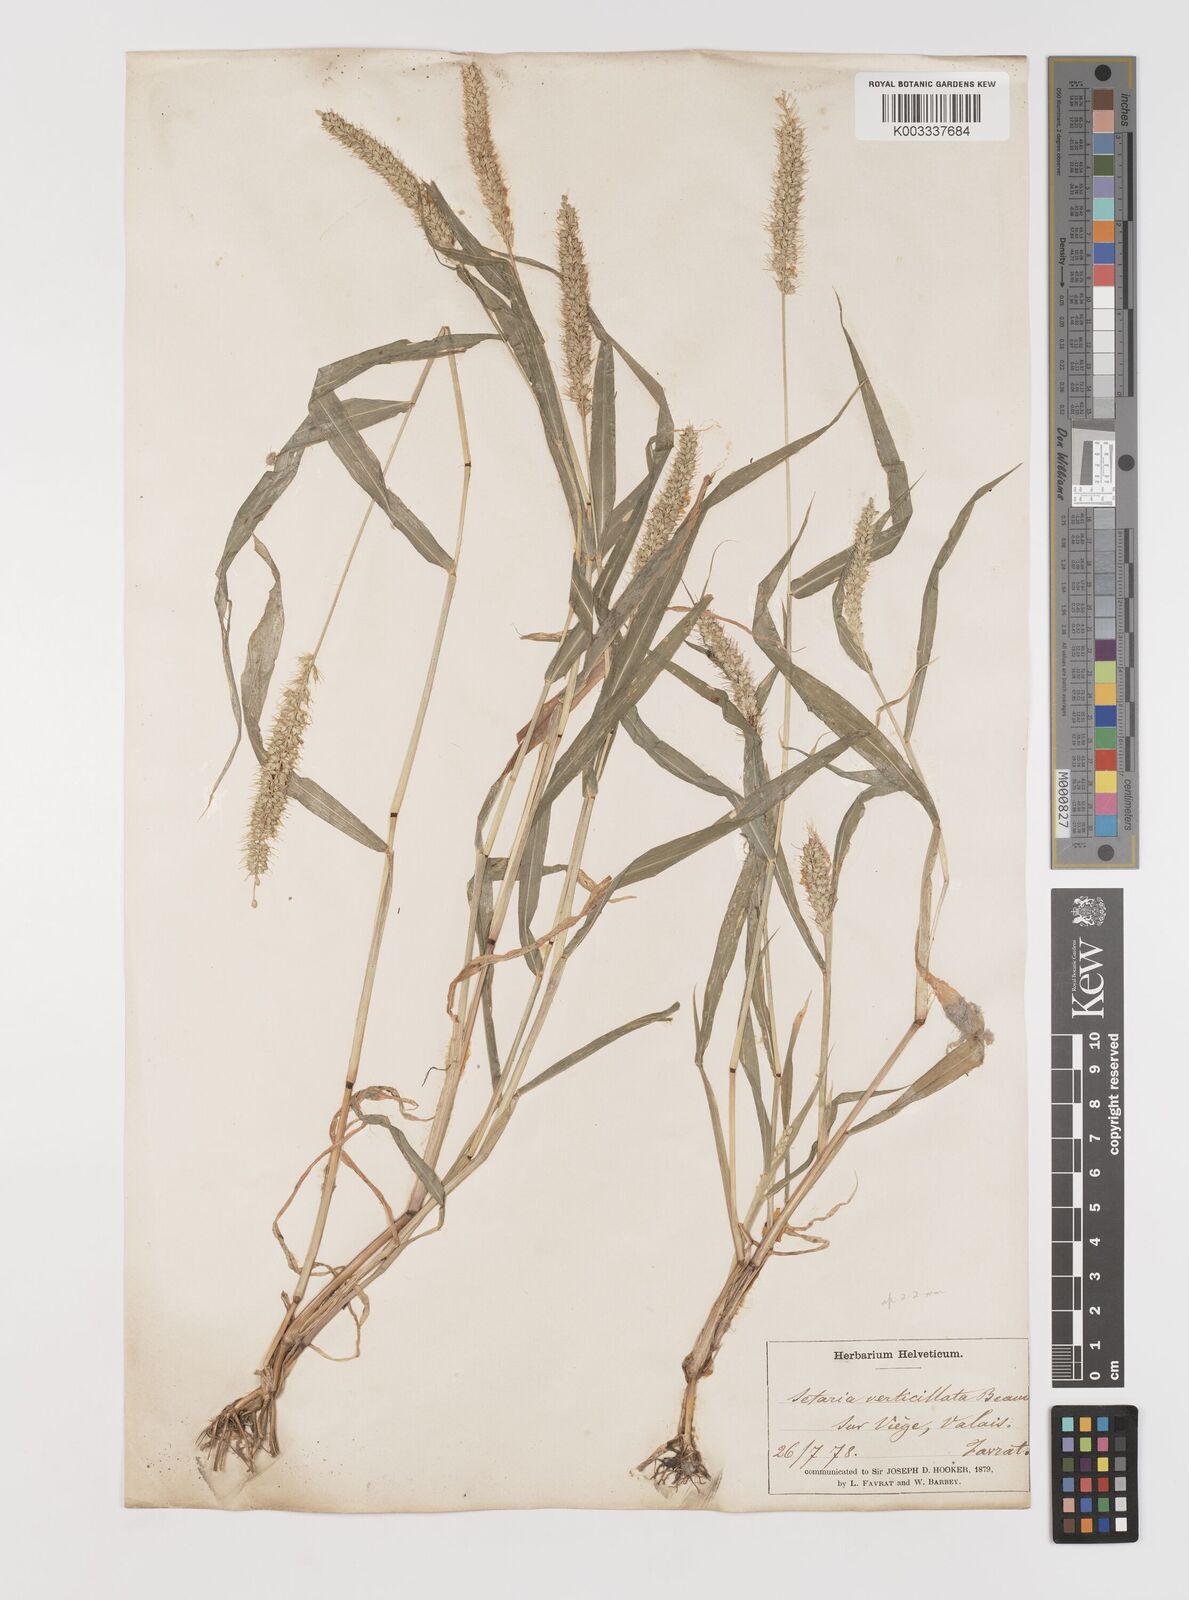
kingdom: Plantae
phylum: Tracheophyta
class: Liliopsida
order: Poales
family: Poaceae
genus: Setaria
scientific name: Setaria verticillata
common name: Hooked bristlegrass
